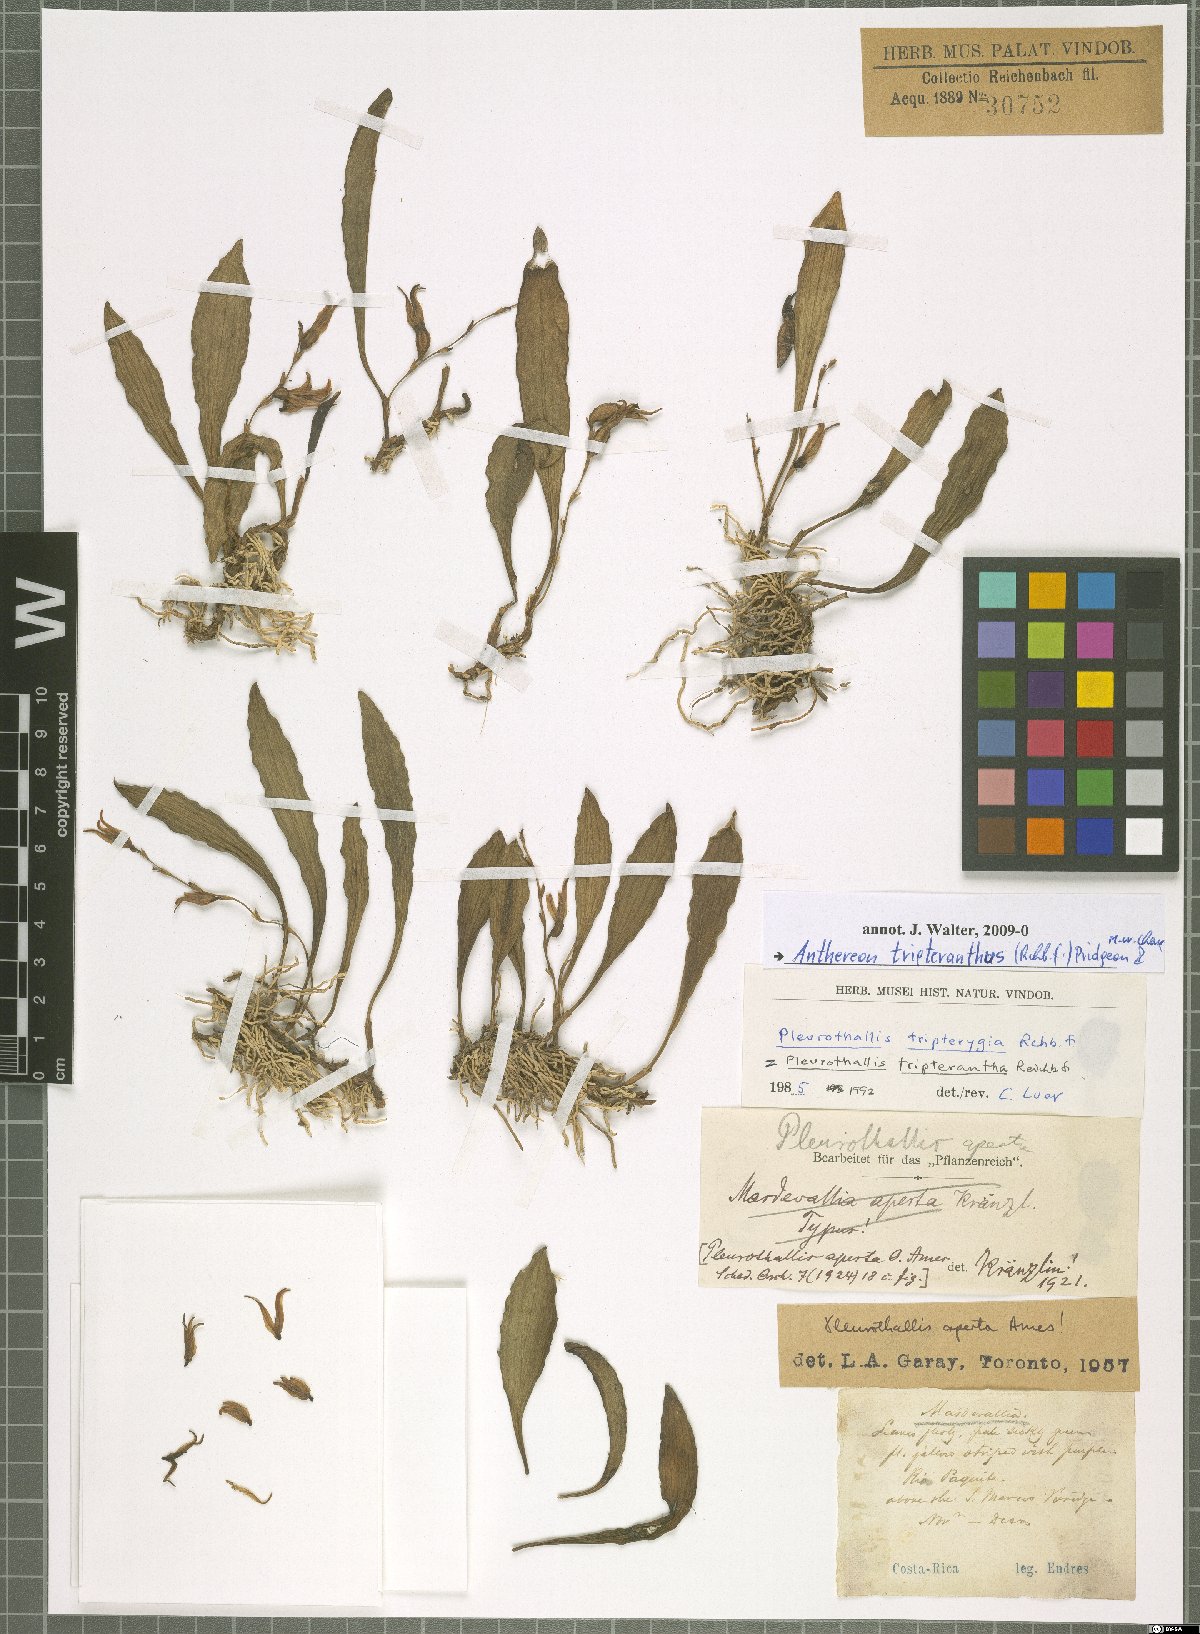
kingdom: Plantae
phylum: Tracheophyta
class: Liliopsida
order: Asparagales
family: Orchidaceae
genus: Pabstiella
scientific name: Pabstiella tripterantha
